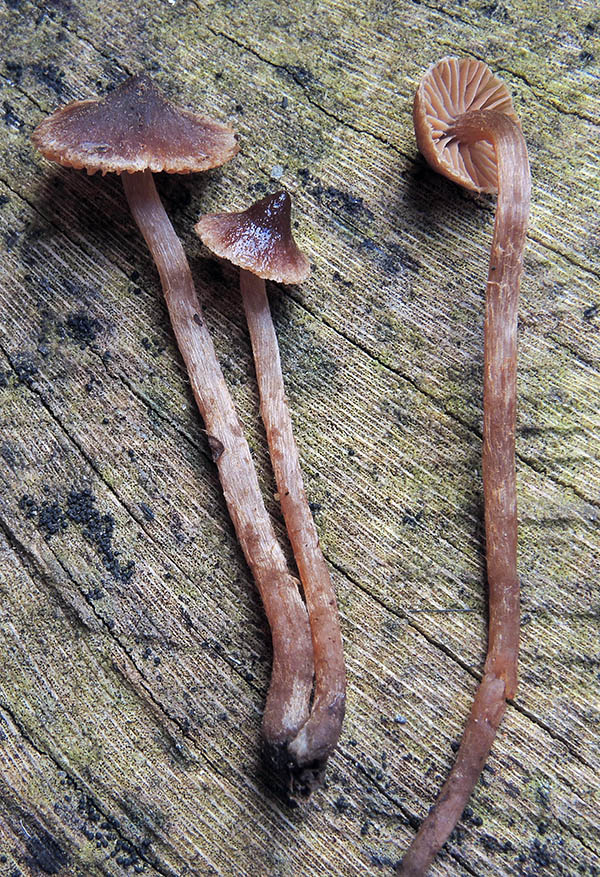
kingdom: Fungi
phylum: Basidiomycota
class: Agaricomycetes
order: Agaricales
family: Cortinariaceae
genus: Cortinarius
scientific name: Cortinarius lamoureae
